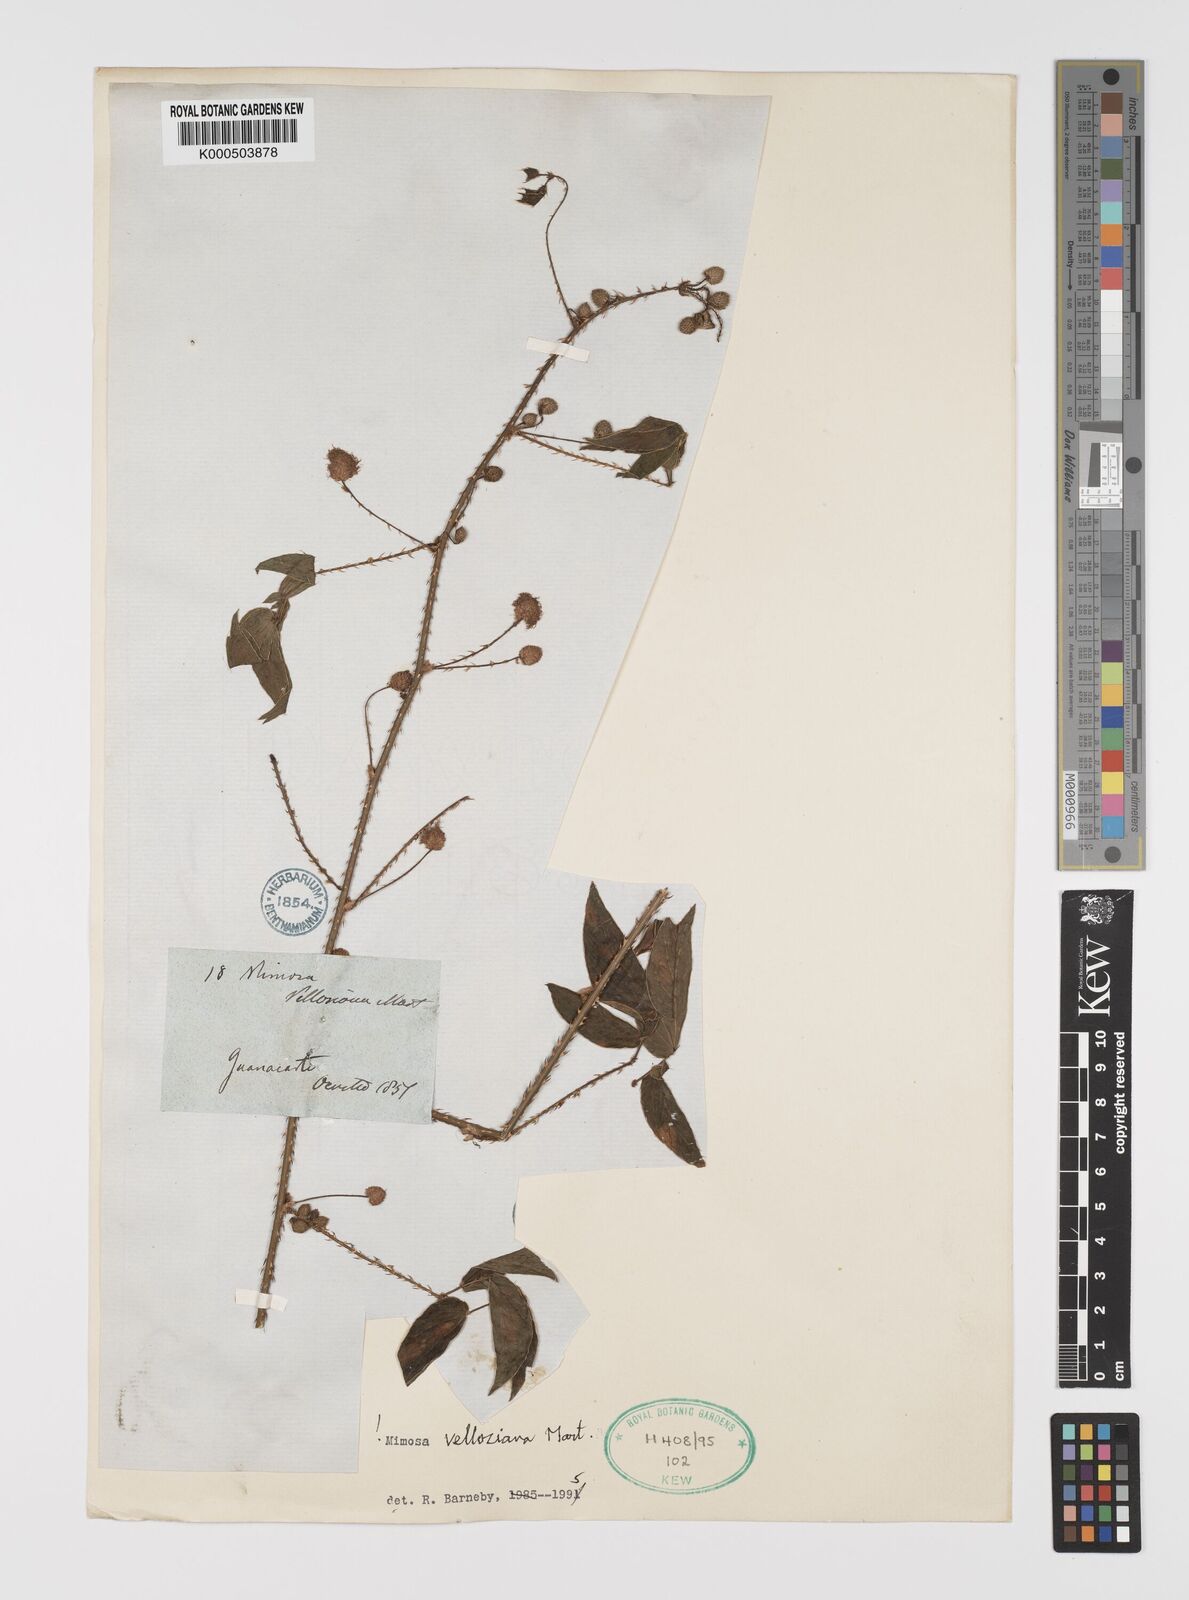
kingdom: Plantae
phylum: Tracheophyta
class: Magnoliopsida
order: Fabales
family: Fabaceae
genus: Mimosa
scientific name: Mimosa velloziana
